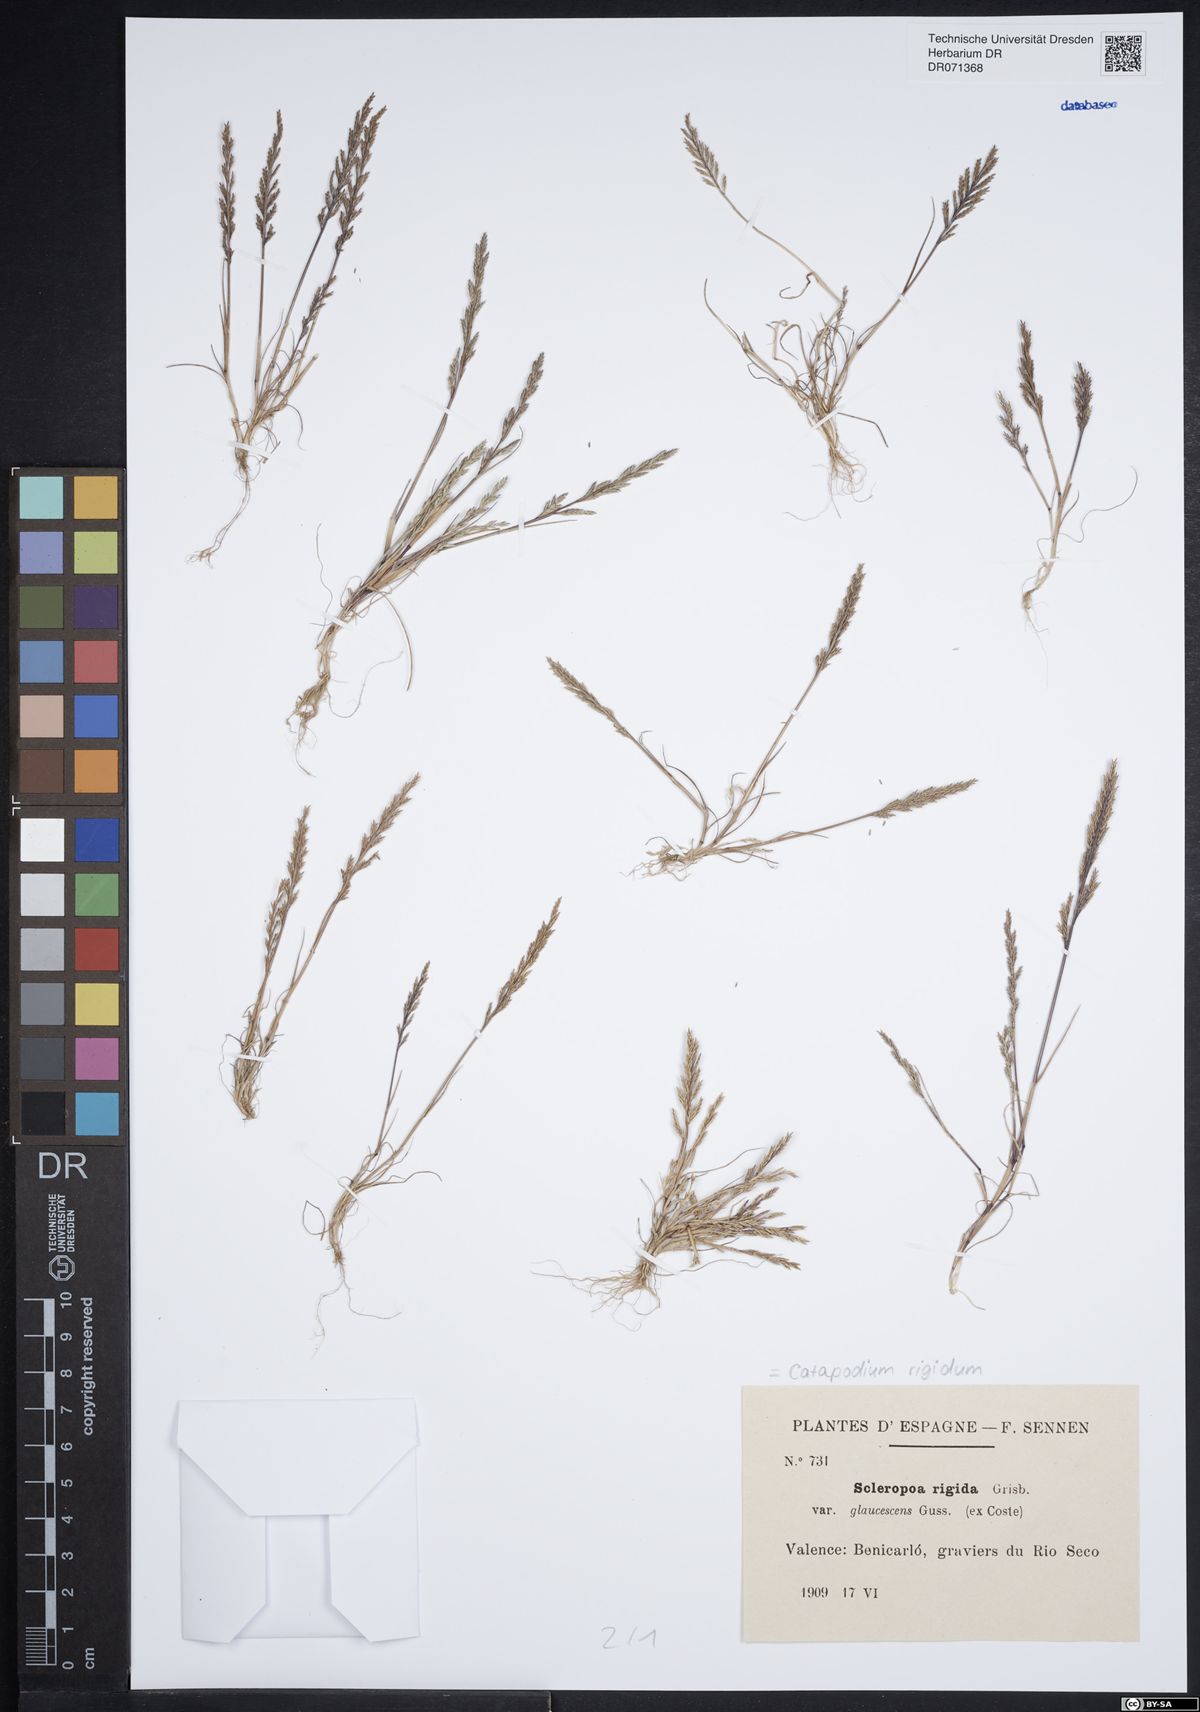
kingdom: Plantae
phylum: Tracheophyta
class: Liliopsida
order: Poales
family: Poaceae
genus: Catapodium
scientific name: Catapodium rigidum
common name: Fern-grass
